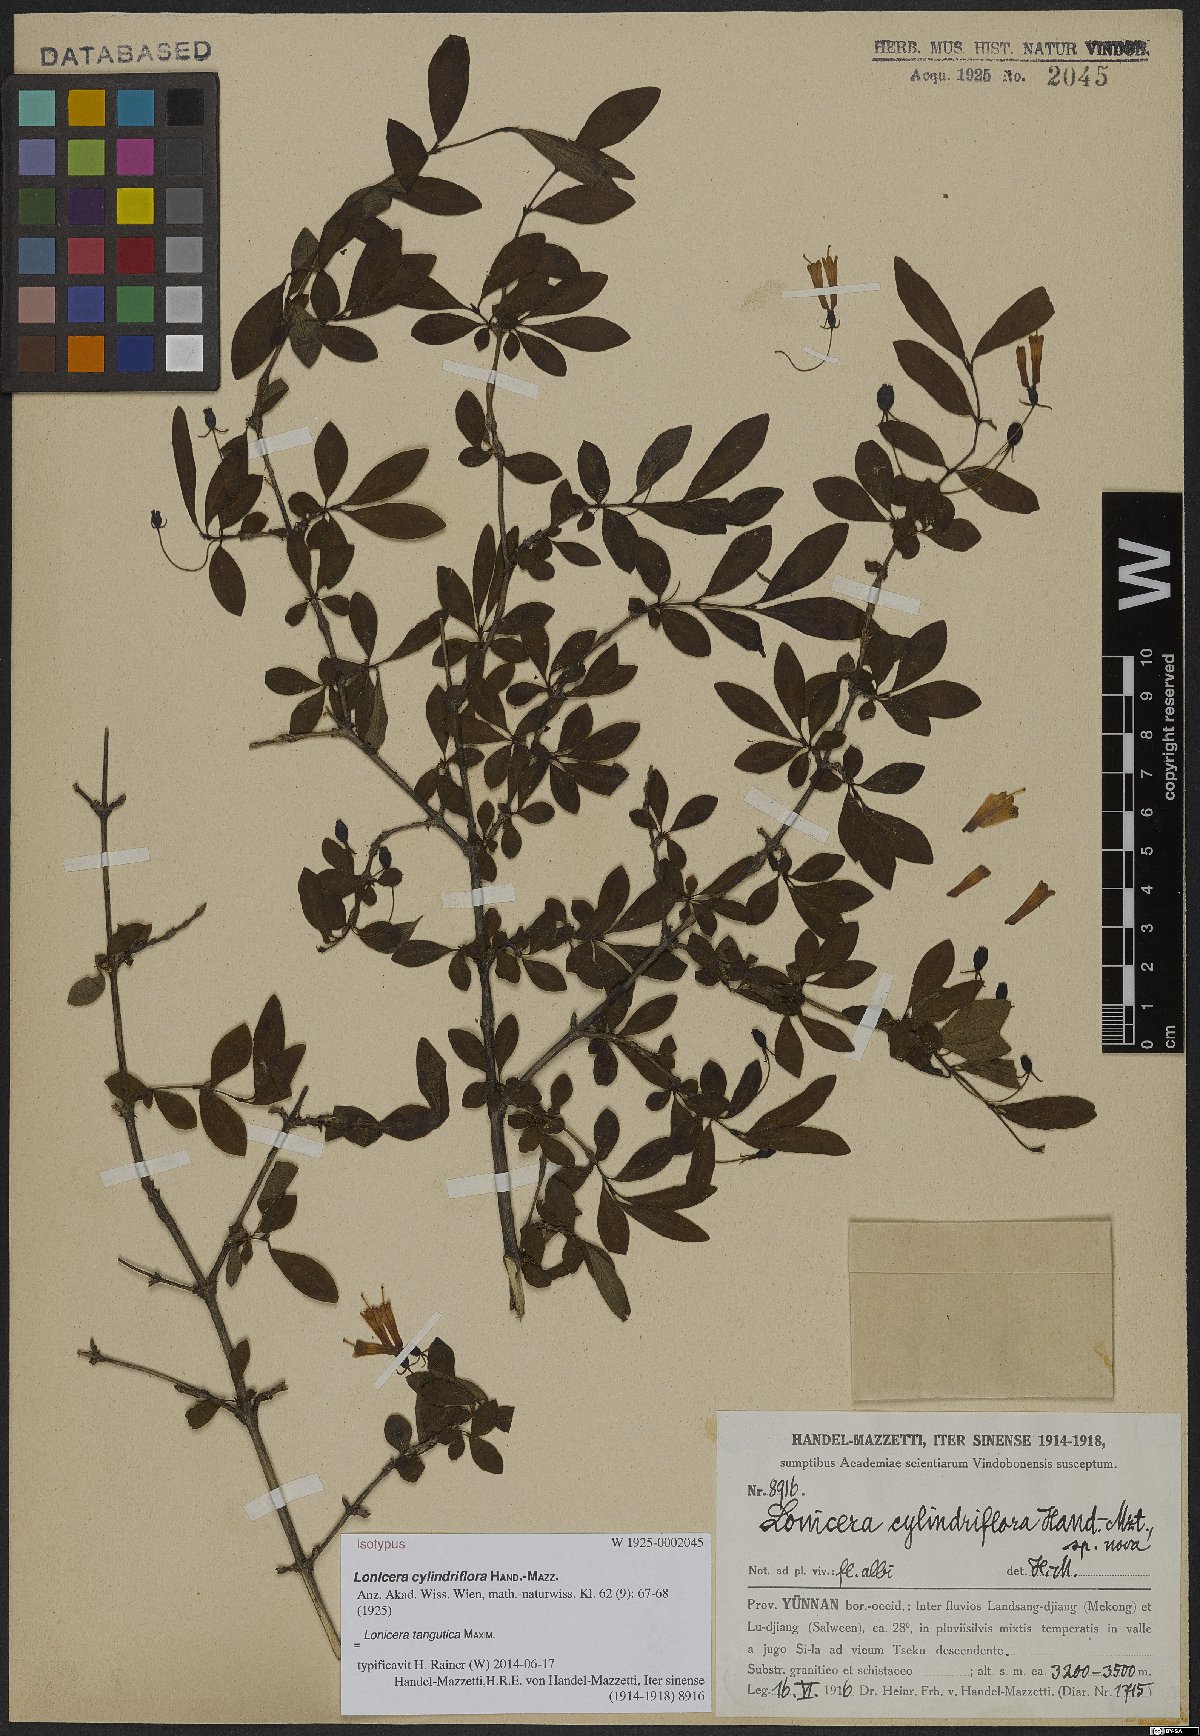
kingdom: Plantae
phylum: Tracheophyta
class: Magnoliopsida
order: Dipsacales
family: Caprifoliaceae
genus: Lonicera
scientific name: Lonicera tangutica
